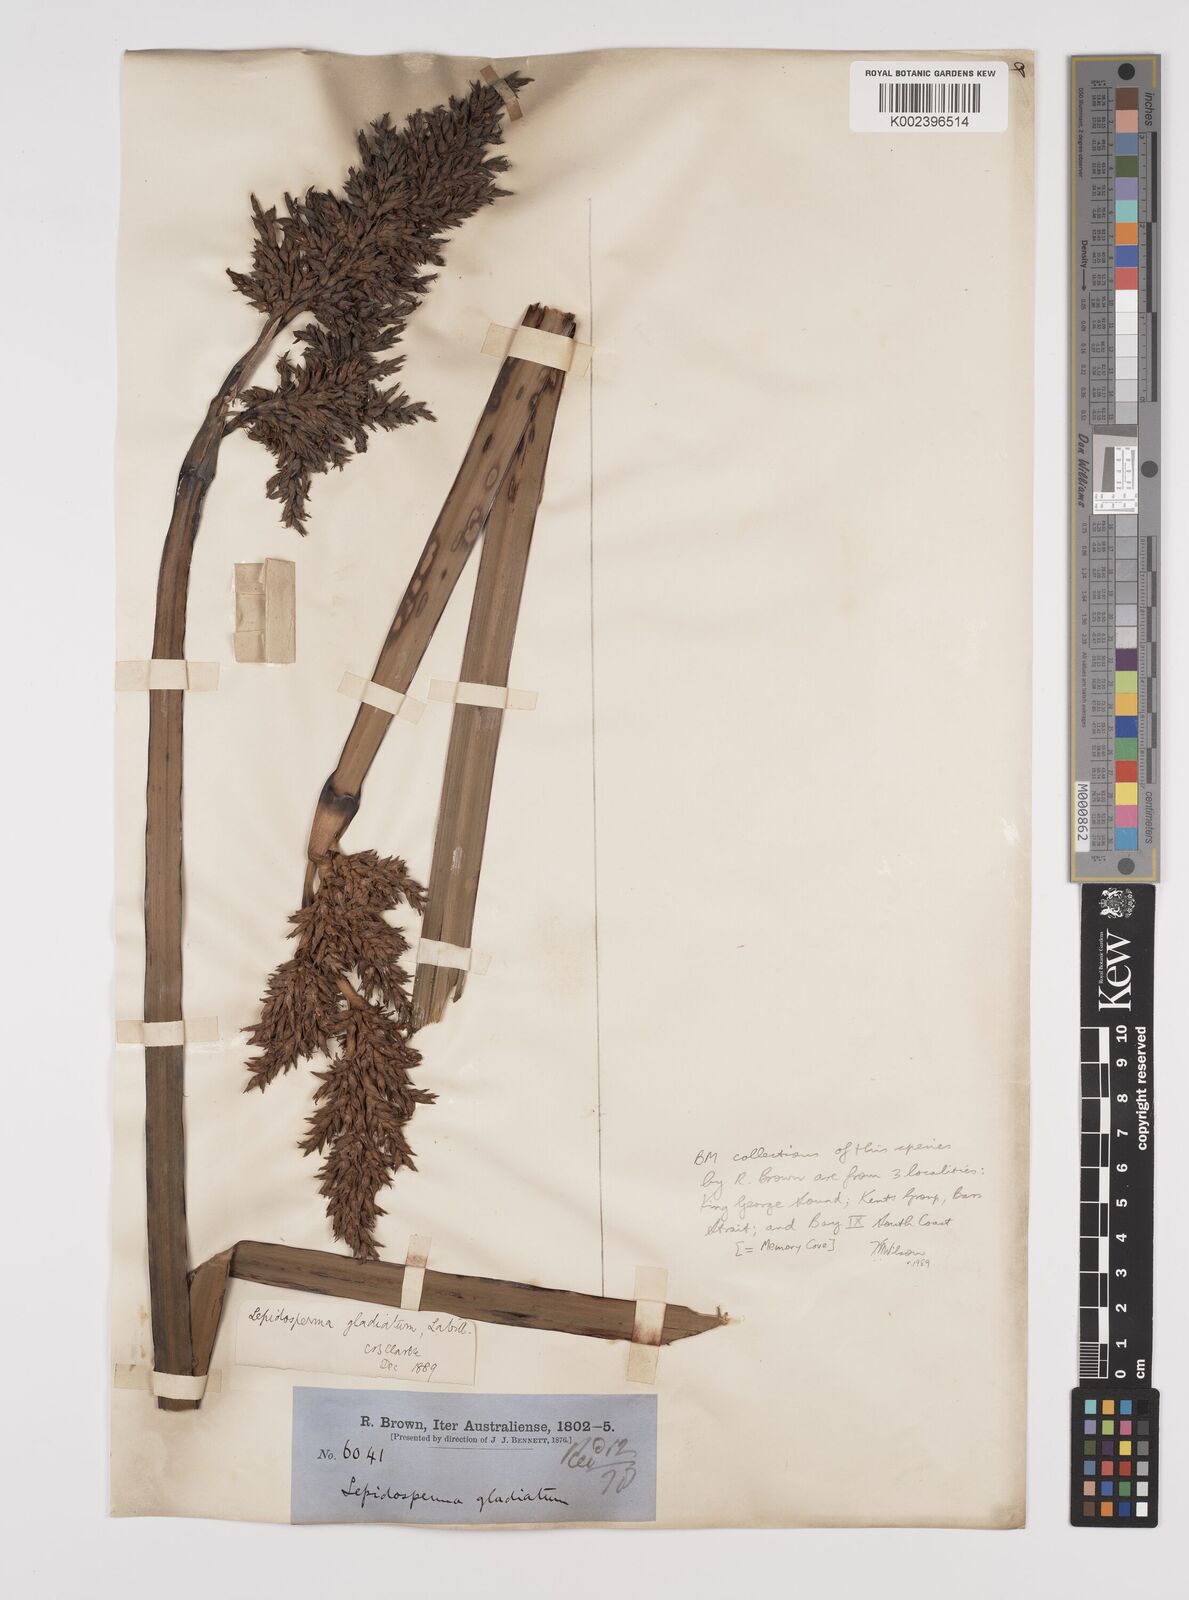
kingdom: Plantae
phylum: Tracheophyta
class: Liliopsida
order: Poales
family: Cyperaceae
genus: Lepidosperma
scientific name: Lepidosperma gladiatum
